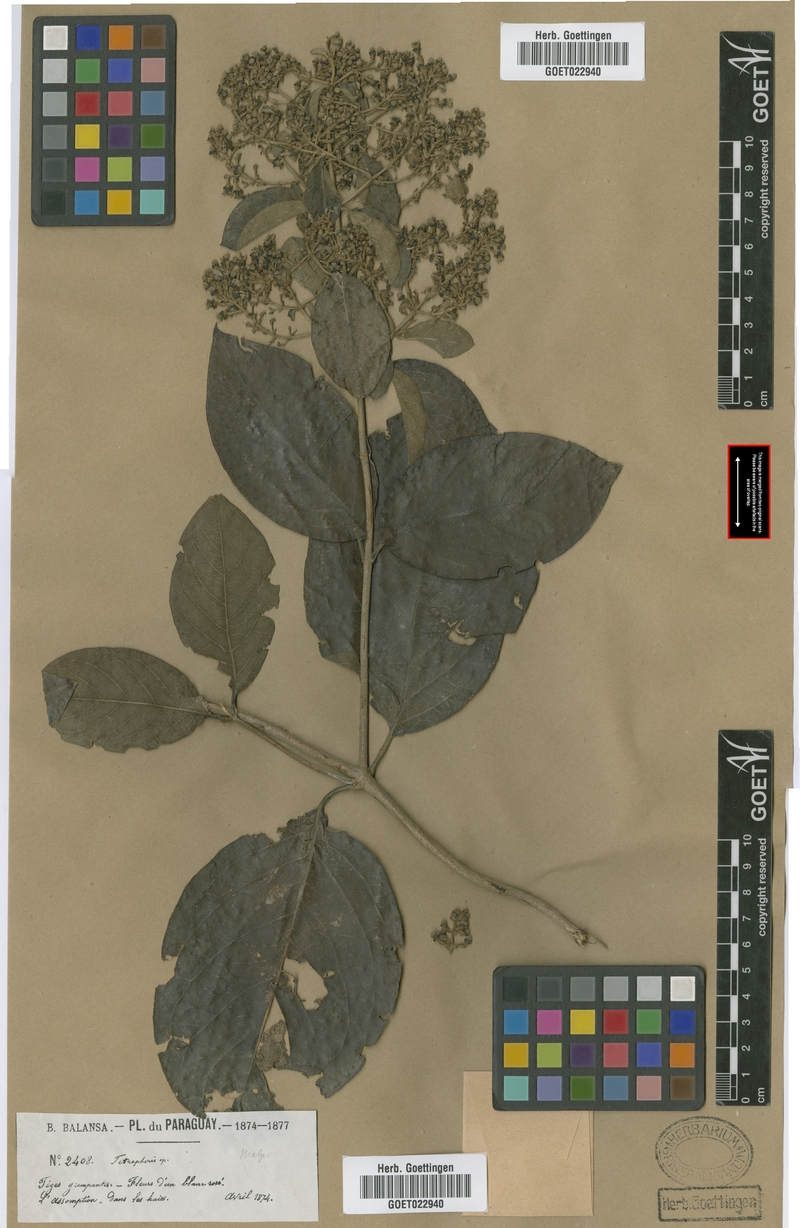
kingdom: Plantae
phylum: Tracheophyta
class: Magnoliopsida
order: Malpighiales
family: Malpighiaceae
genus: Alicia
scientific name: Alicia anisopetala
